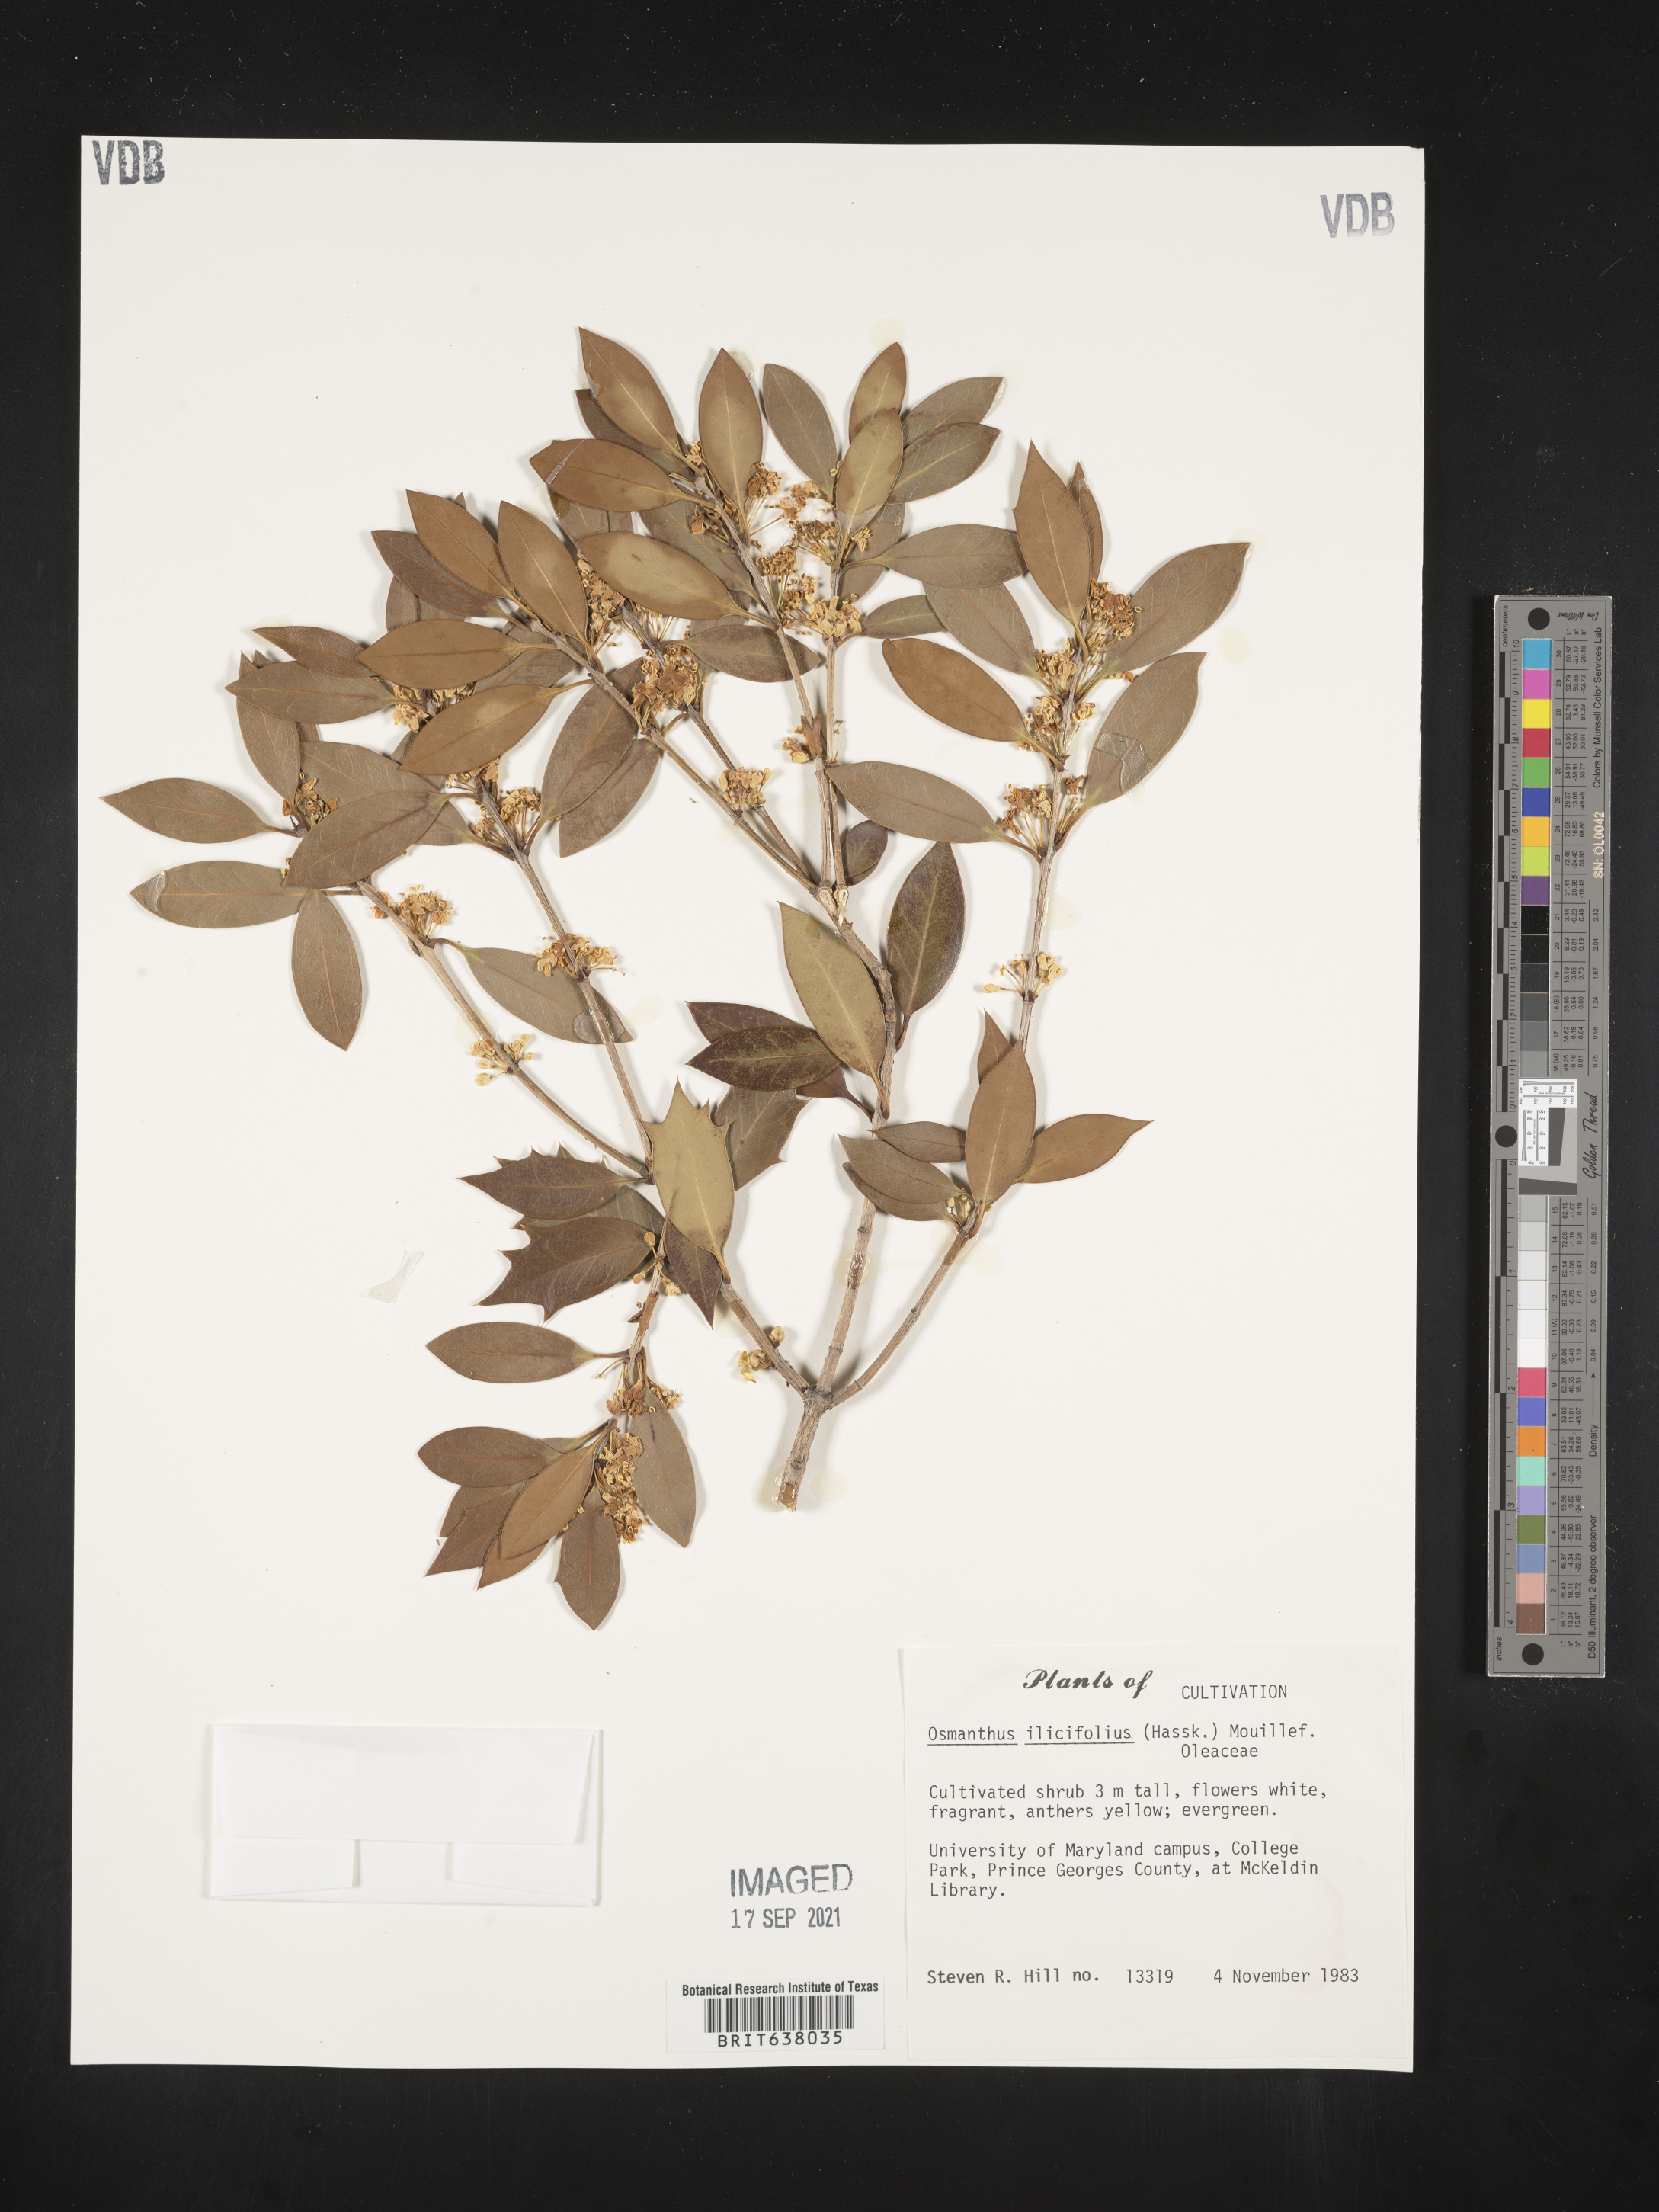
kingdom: Plantae
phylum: Tracheophyta
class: Magnoliopsida
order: Lamiales
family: Oleaceae
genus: Osmanthus
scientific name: Osmanthus heterophyllus
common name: Holly osmanthus
